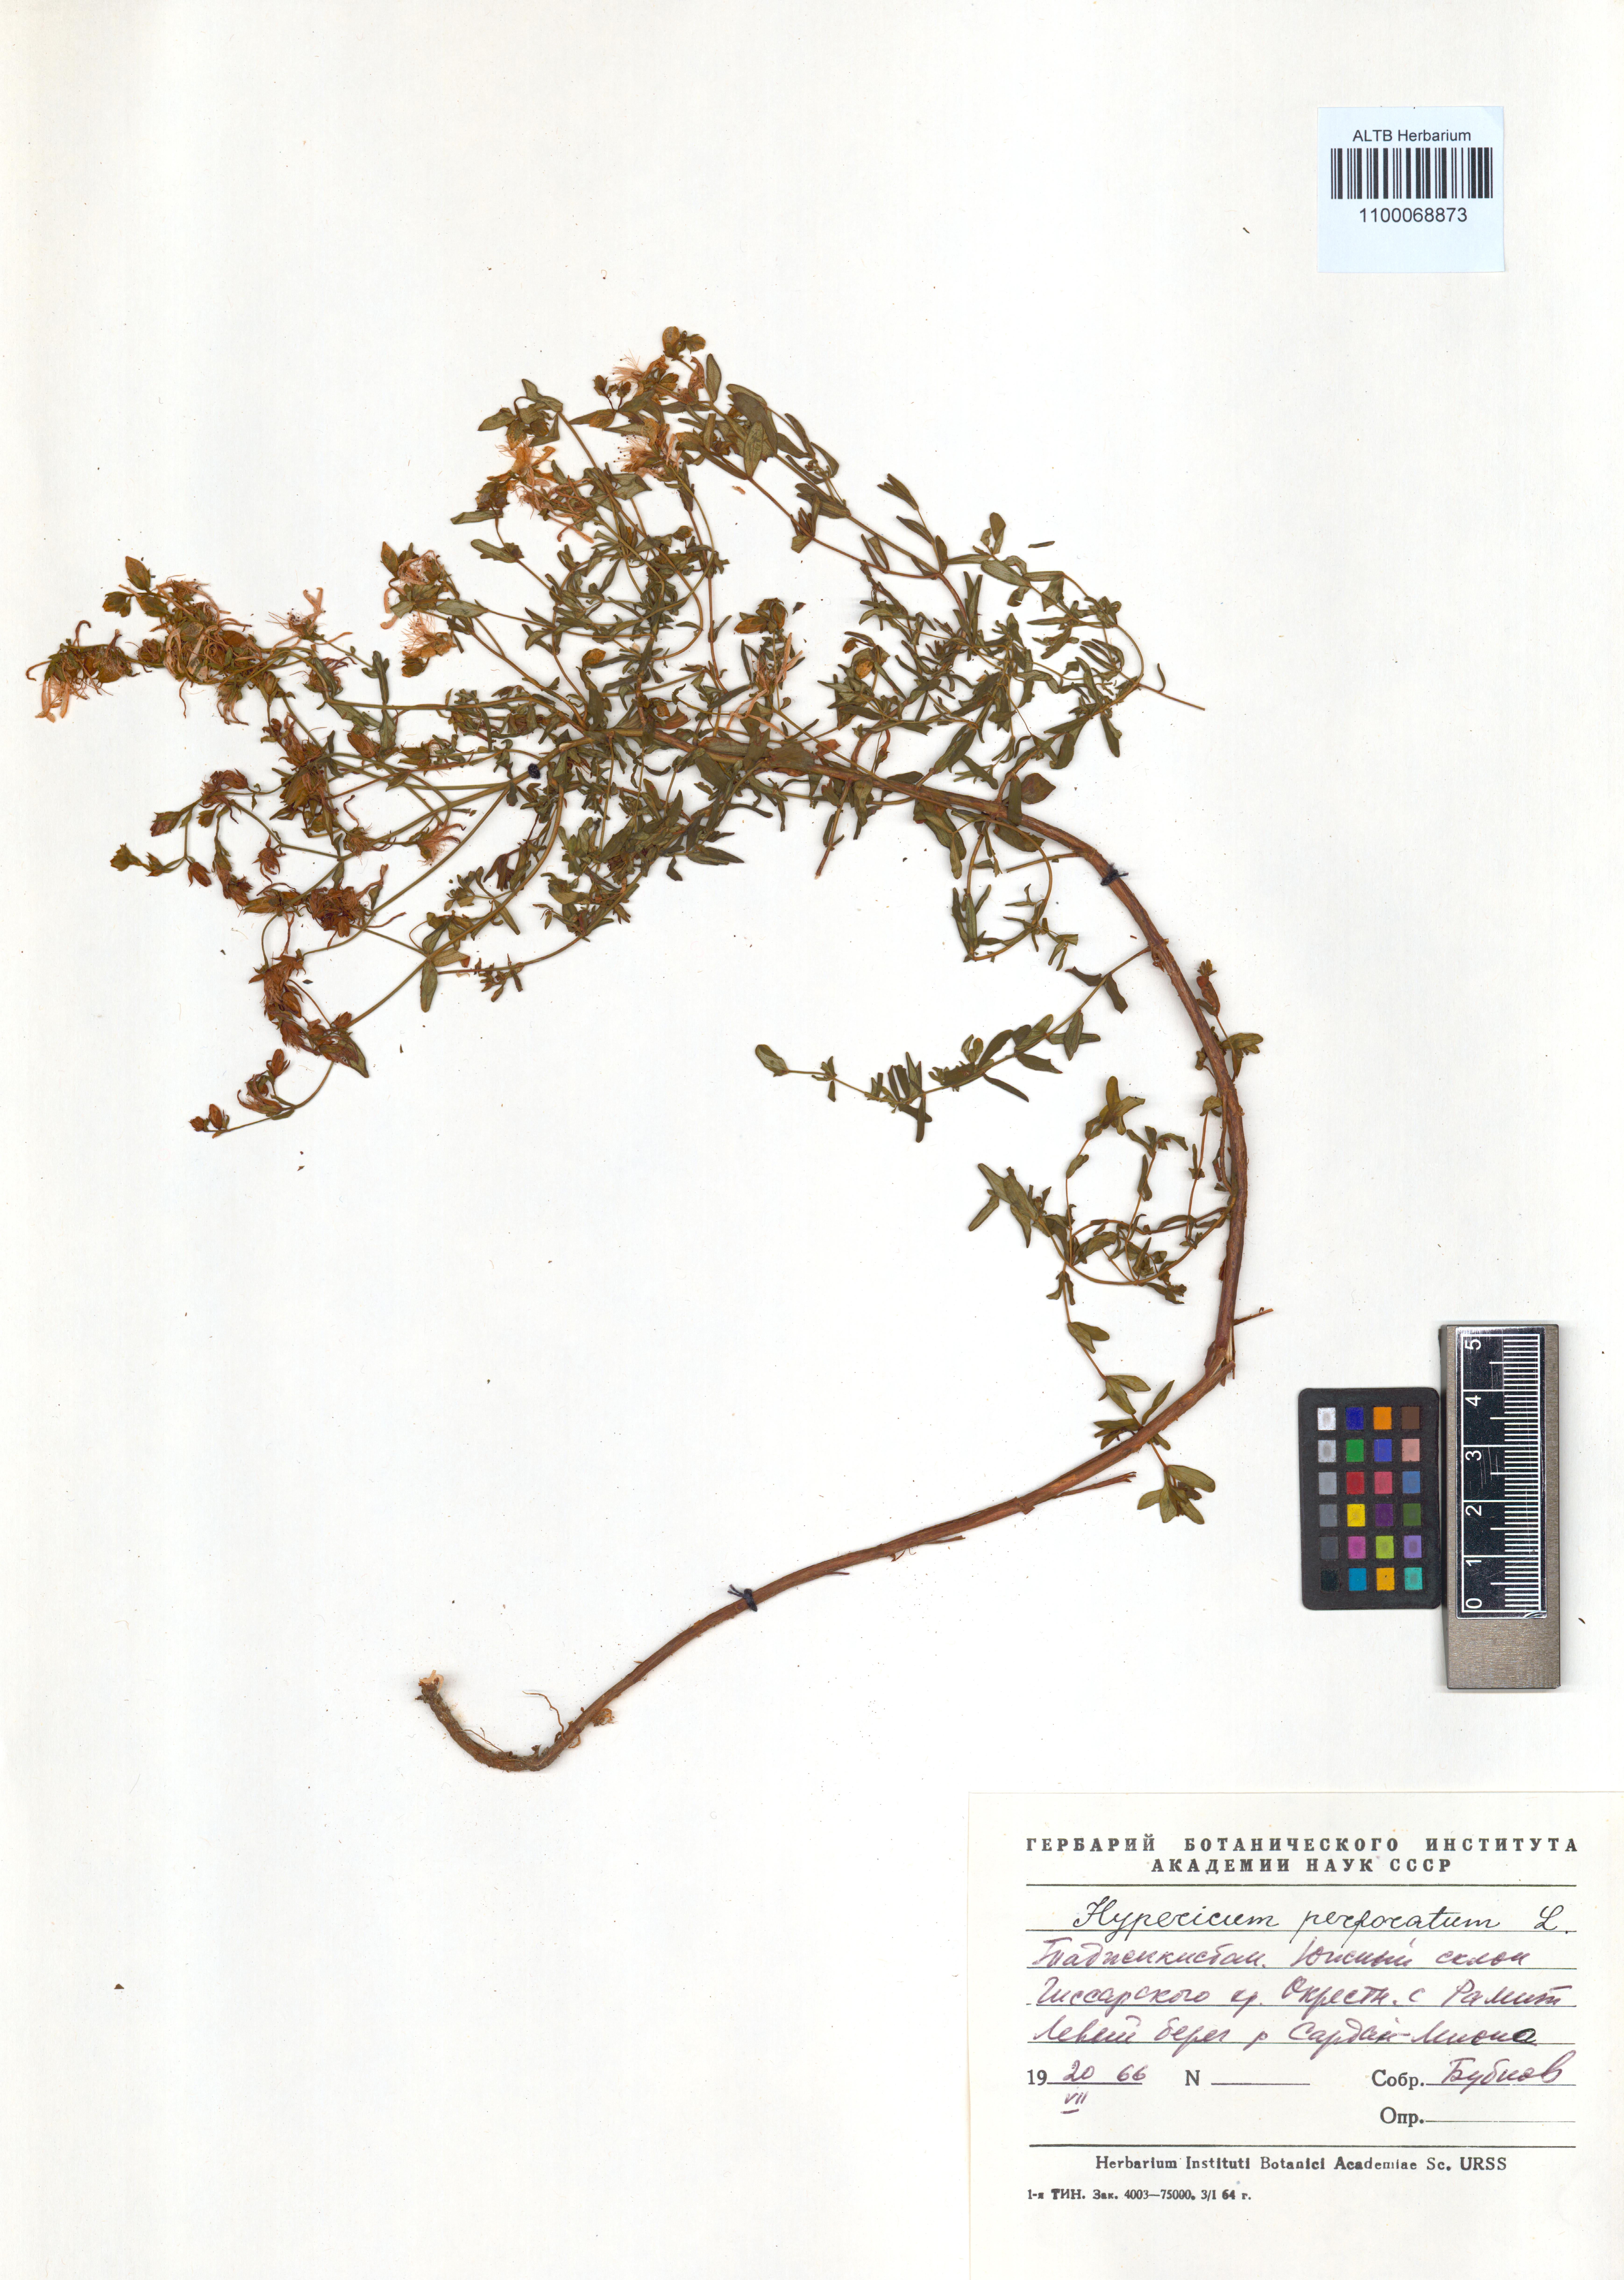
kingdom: Plantae
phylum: Tracheophyta
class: Magnoliopsida
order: Malpighiales
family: Hypericaceae
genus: Hypericum
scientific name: Hypericum perforatum
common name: Common st. johnswort
